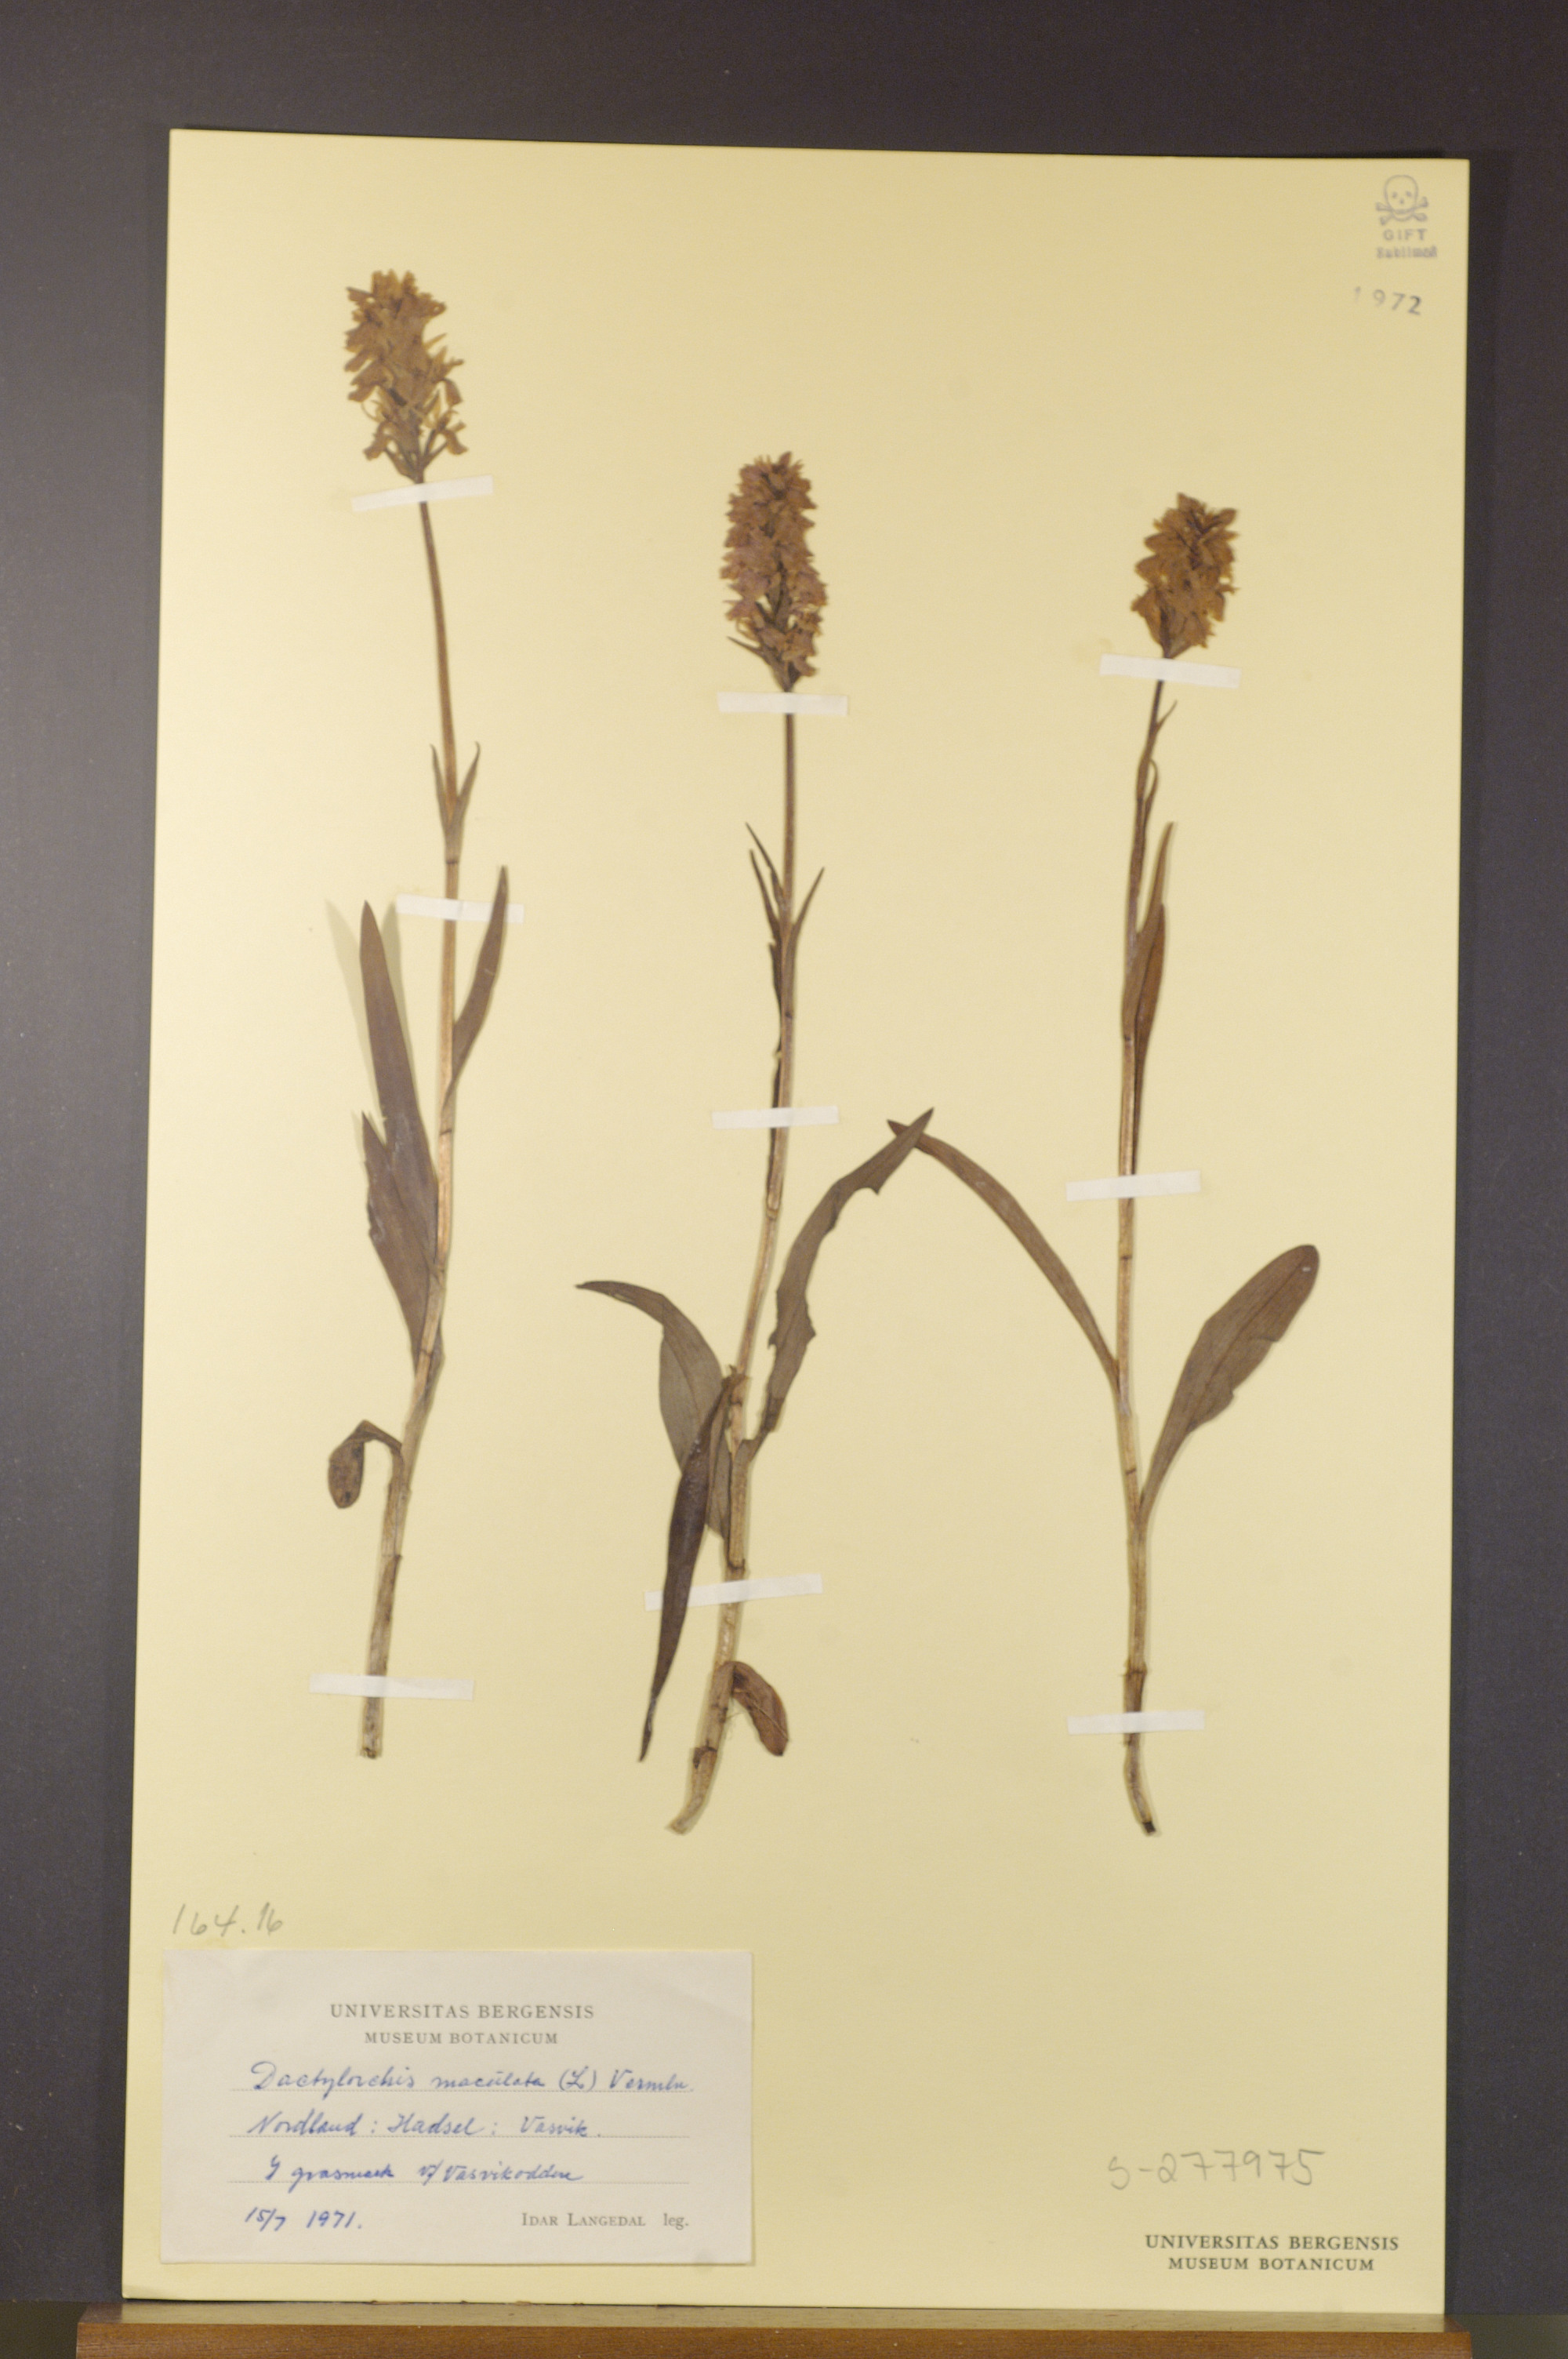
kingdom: Plantae
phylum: Tracheophyta
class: Liliopsida
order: Asparagales
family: Orchidaceae
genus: Dactylorhiza
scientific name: Dactylorhiza maculata
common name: Heath spotted-orchid
